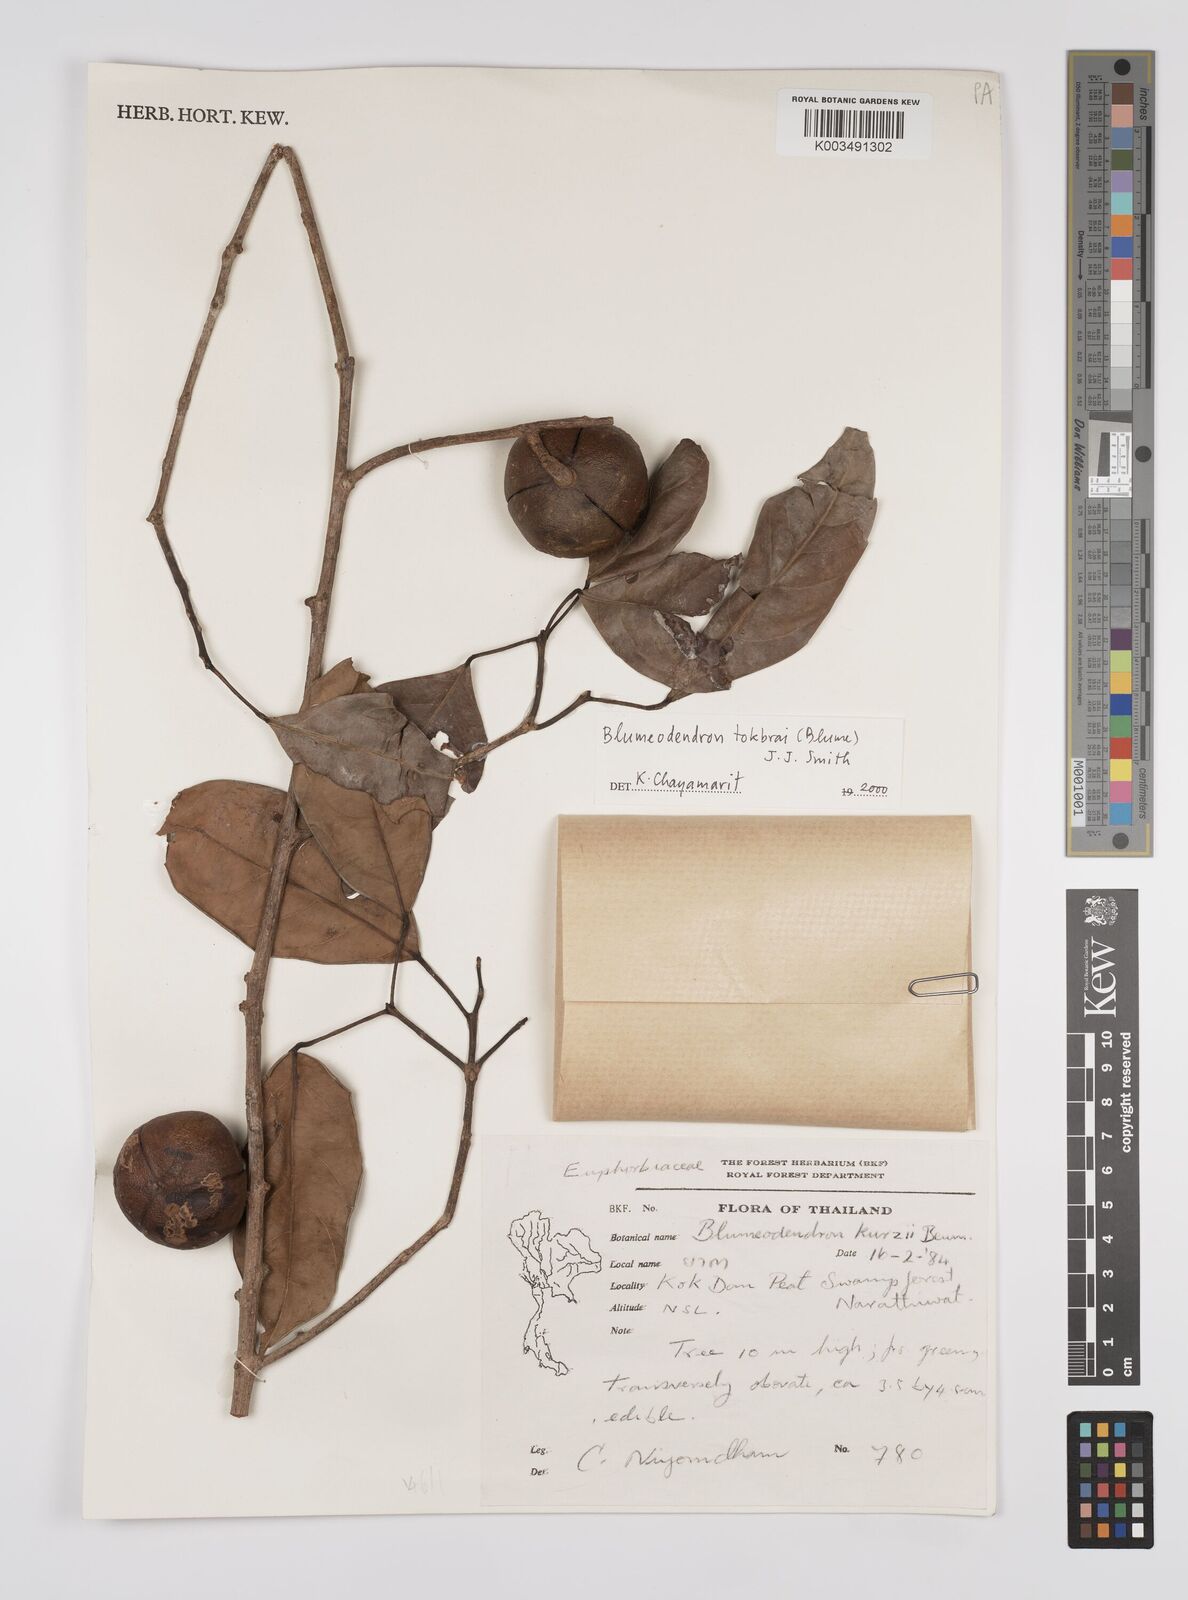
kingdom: Plantae
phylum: Tracheophyta
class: Magnoliopsida
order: Malpighiales
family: Euphorbiaceae
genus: Blumeodendron
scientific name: Blumeodendron tokbrai
